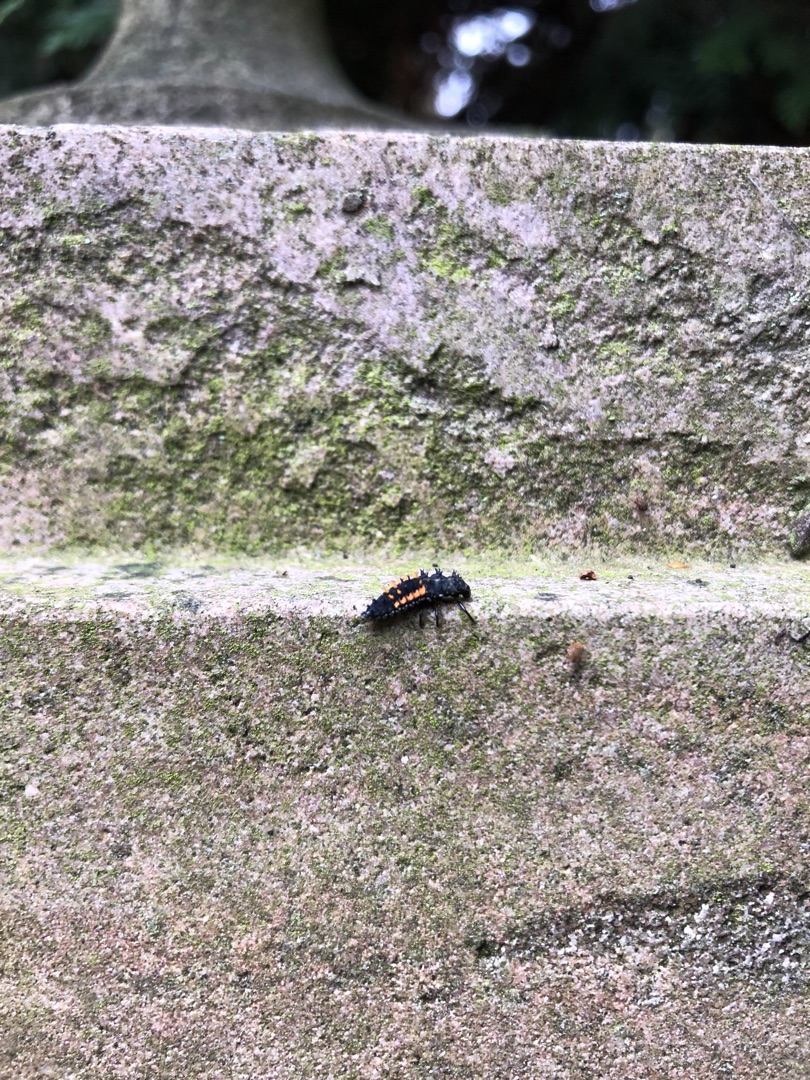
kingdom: Animalia
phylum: Arthropoda
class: Insecta
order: Coleoptera
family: Coccinellidae
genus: Harmonia
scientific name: Harmonia axyridis
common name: Harlekinmariehøne
